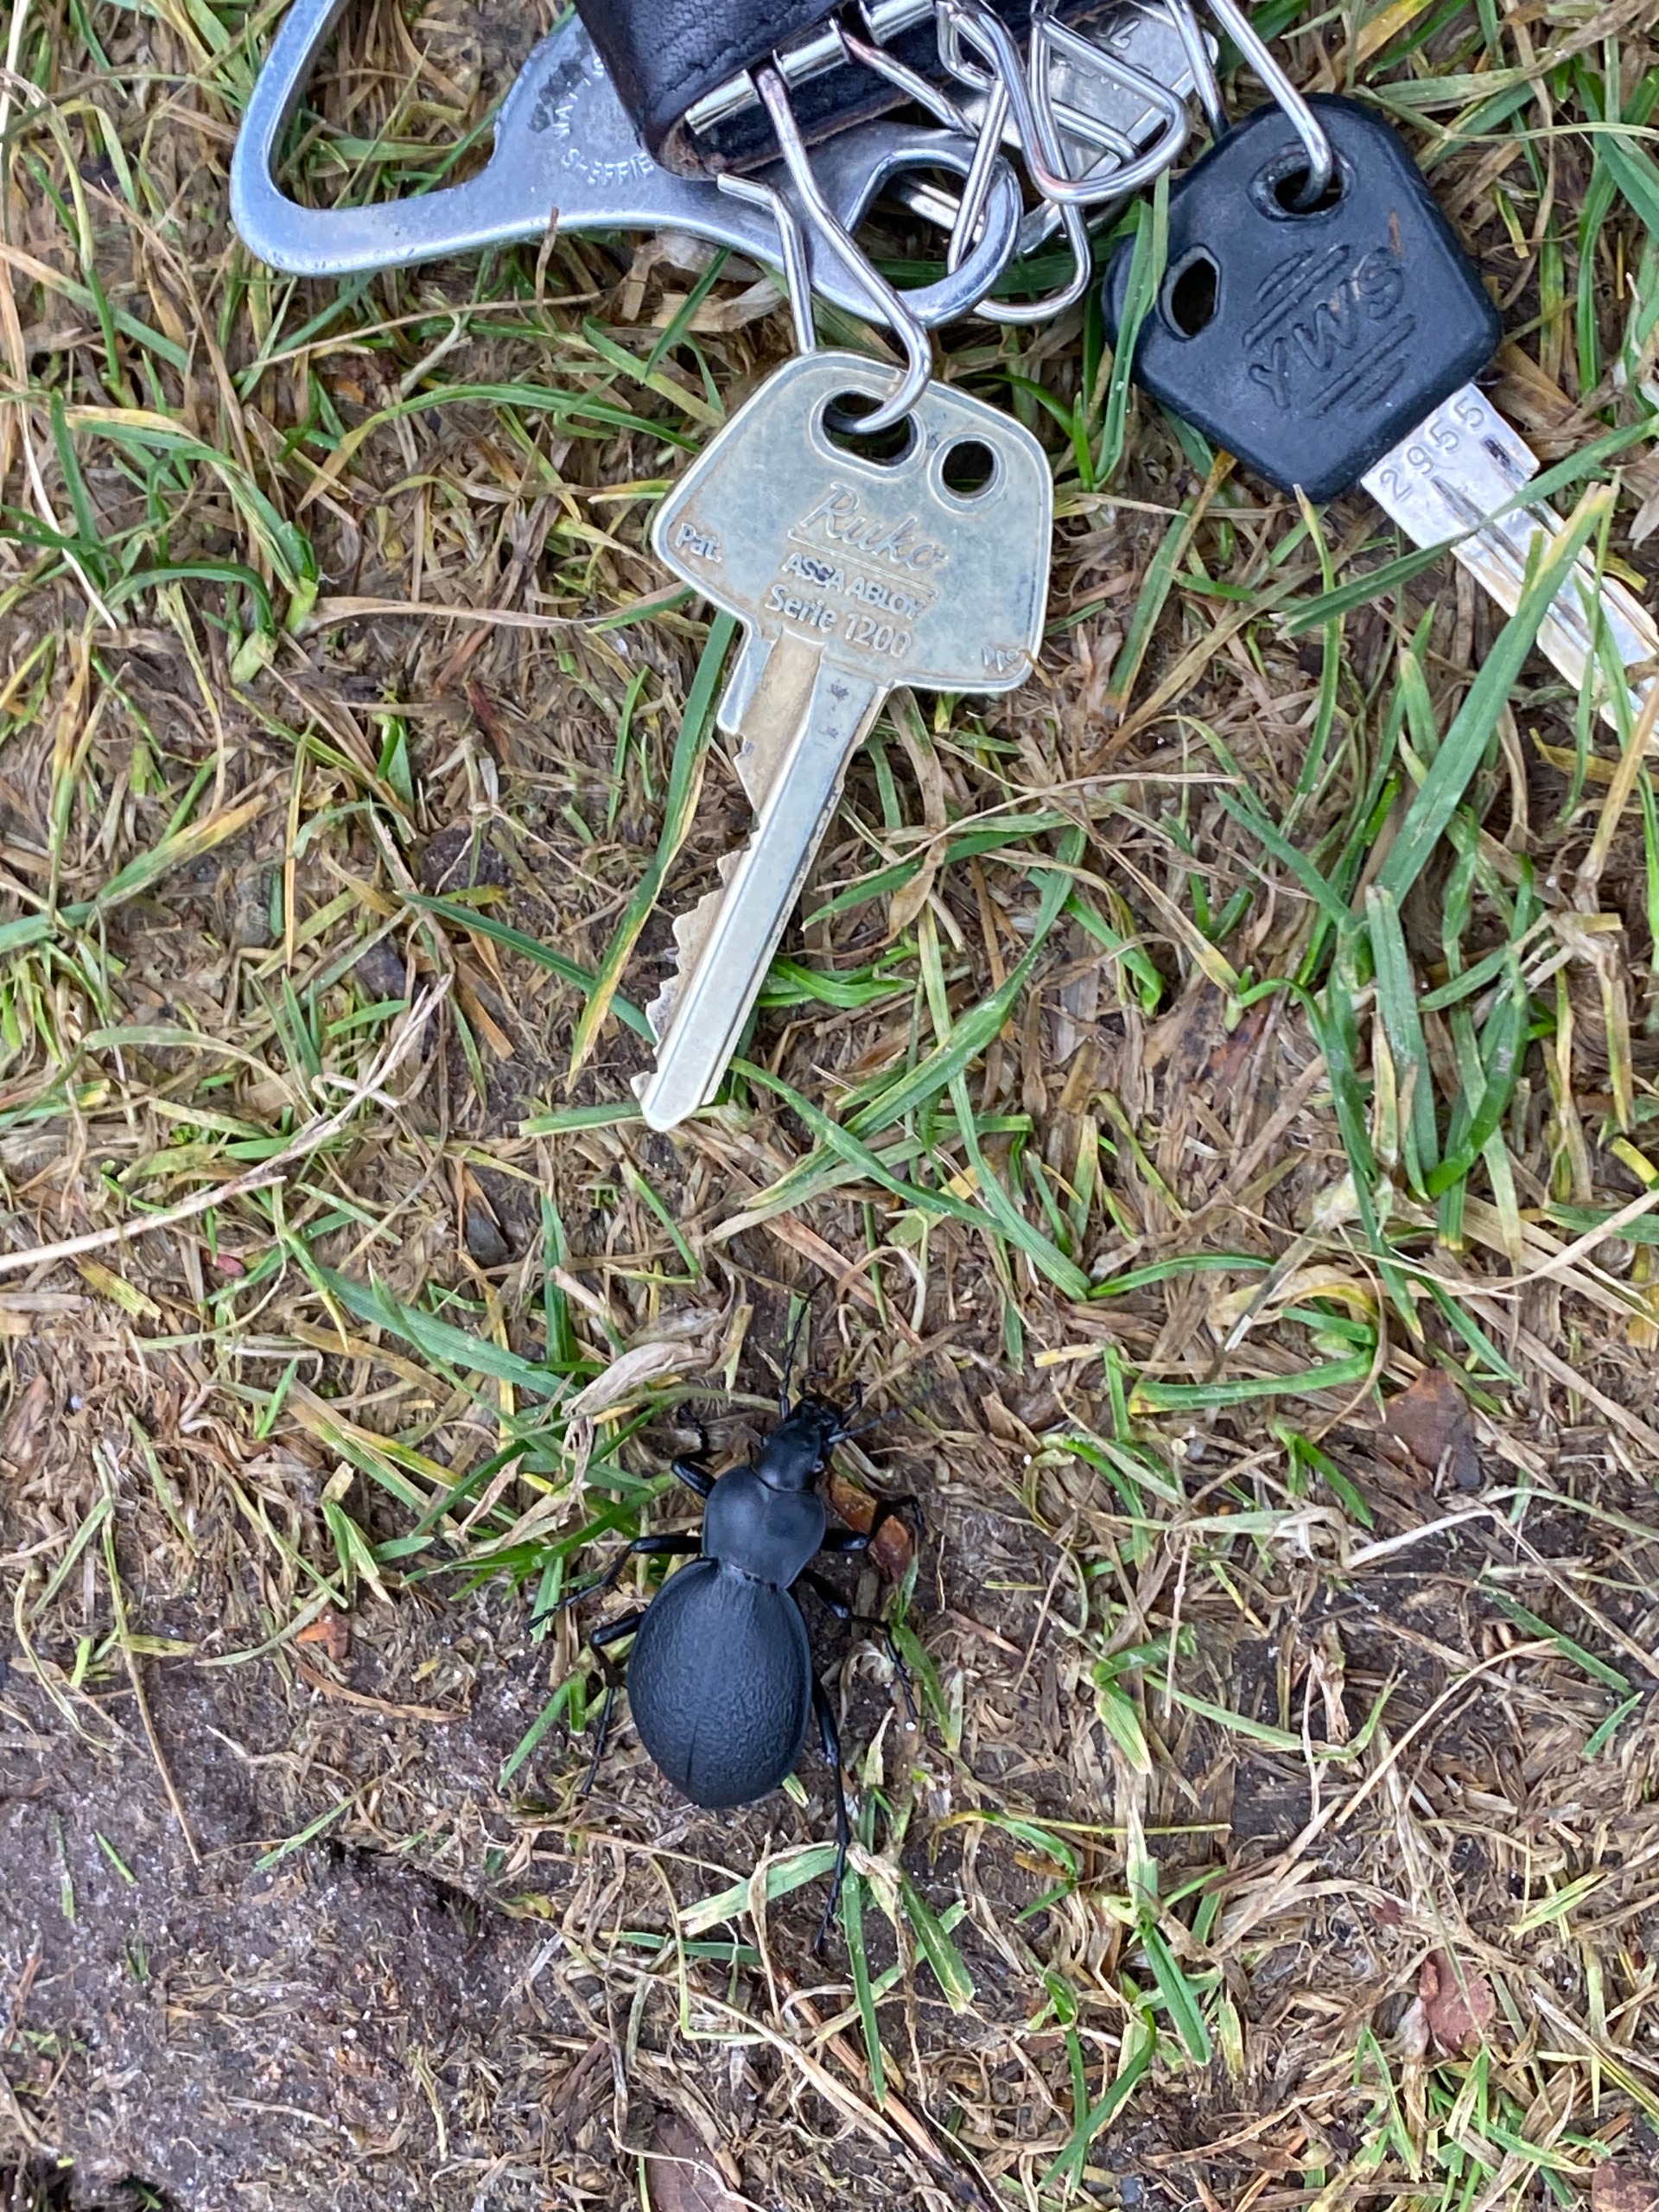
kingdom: Animalia
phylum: Arthropoda
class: Insecta
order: Coleoptera
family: Carabidae
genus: Carabus
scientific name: Carabus coriaceus
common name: Læderløber
